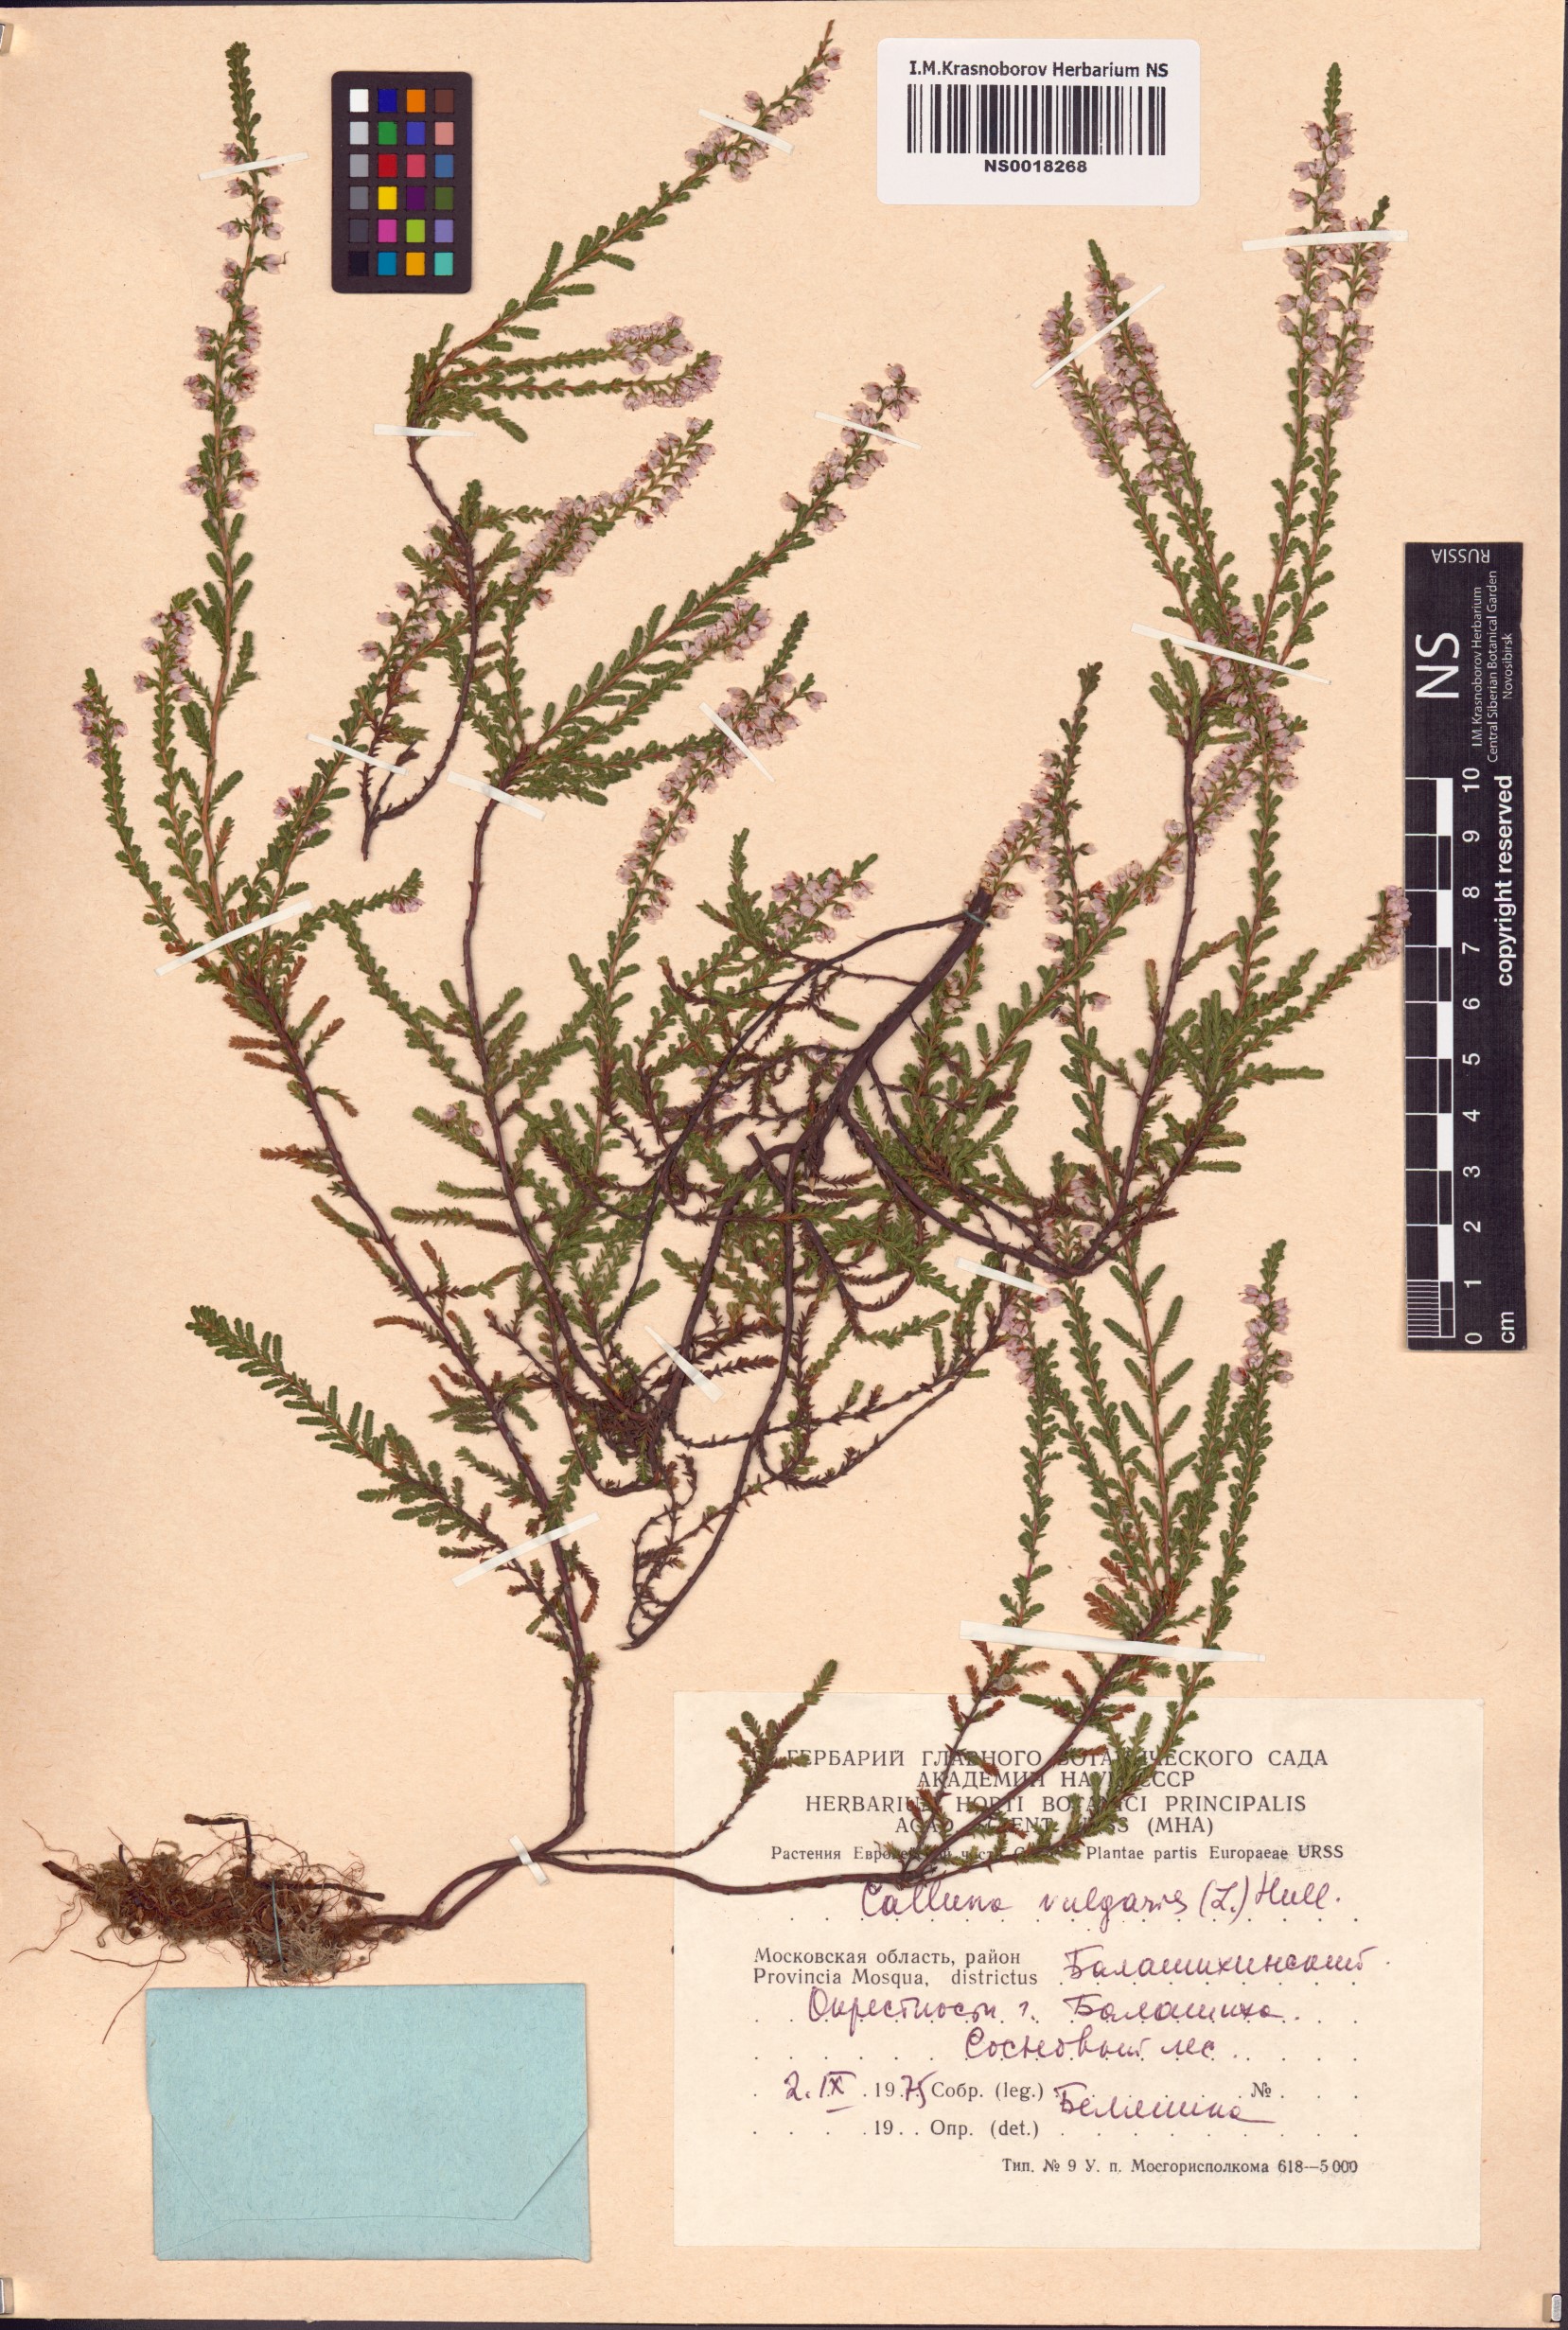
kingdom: Plantae
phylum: Tracheophyta
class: Magnoliopsida
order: Ericales
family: Ericaceae
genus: Calluna
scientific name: Calluna vulgaris
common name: Heather
